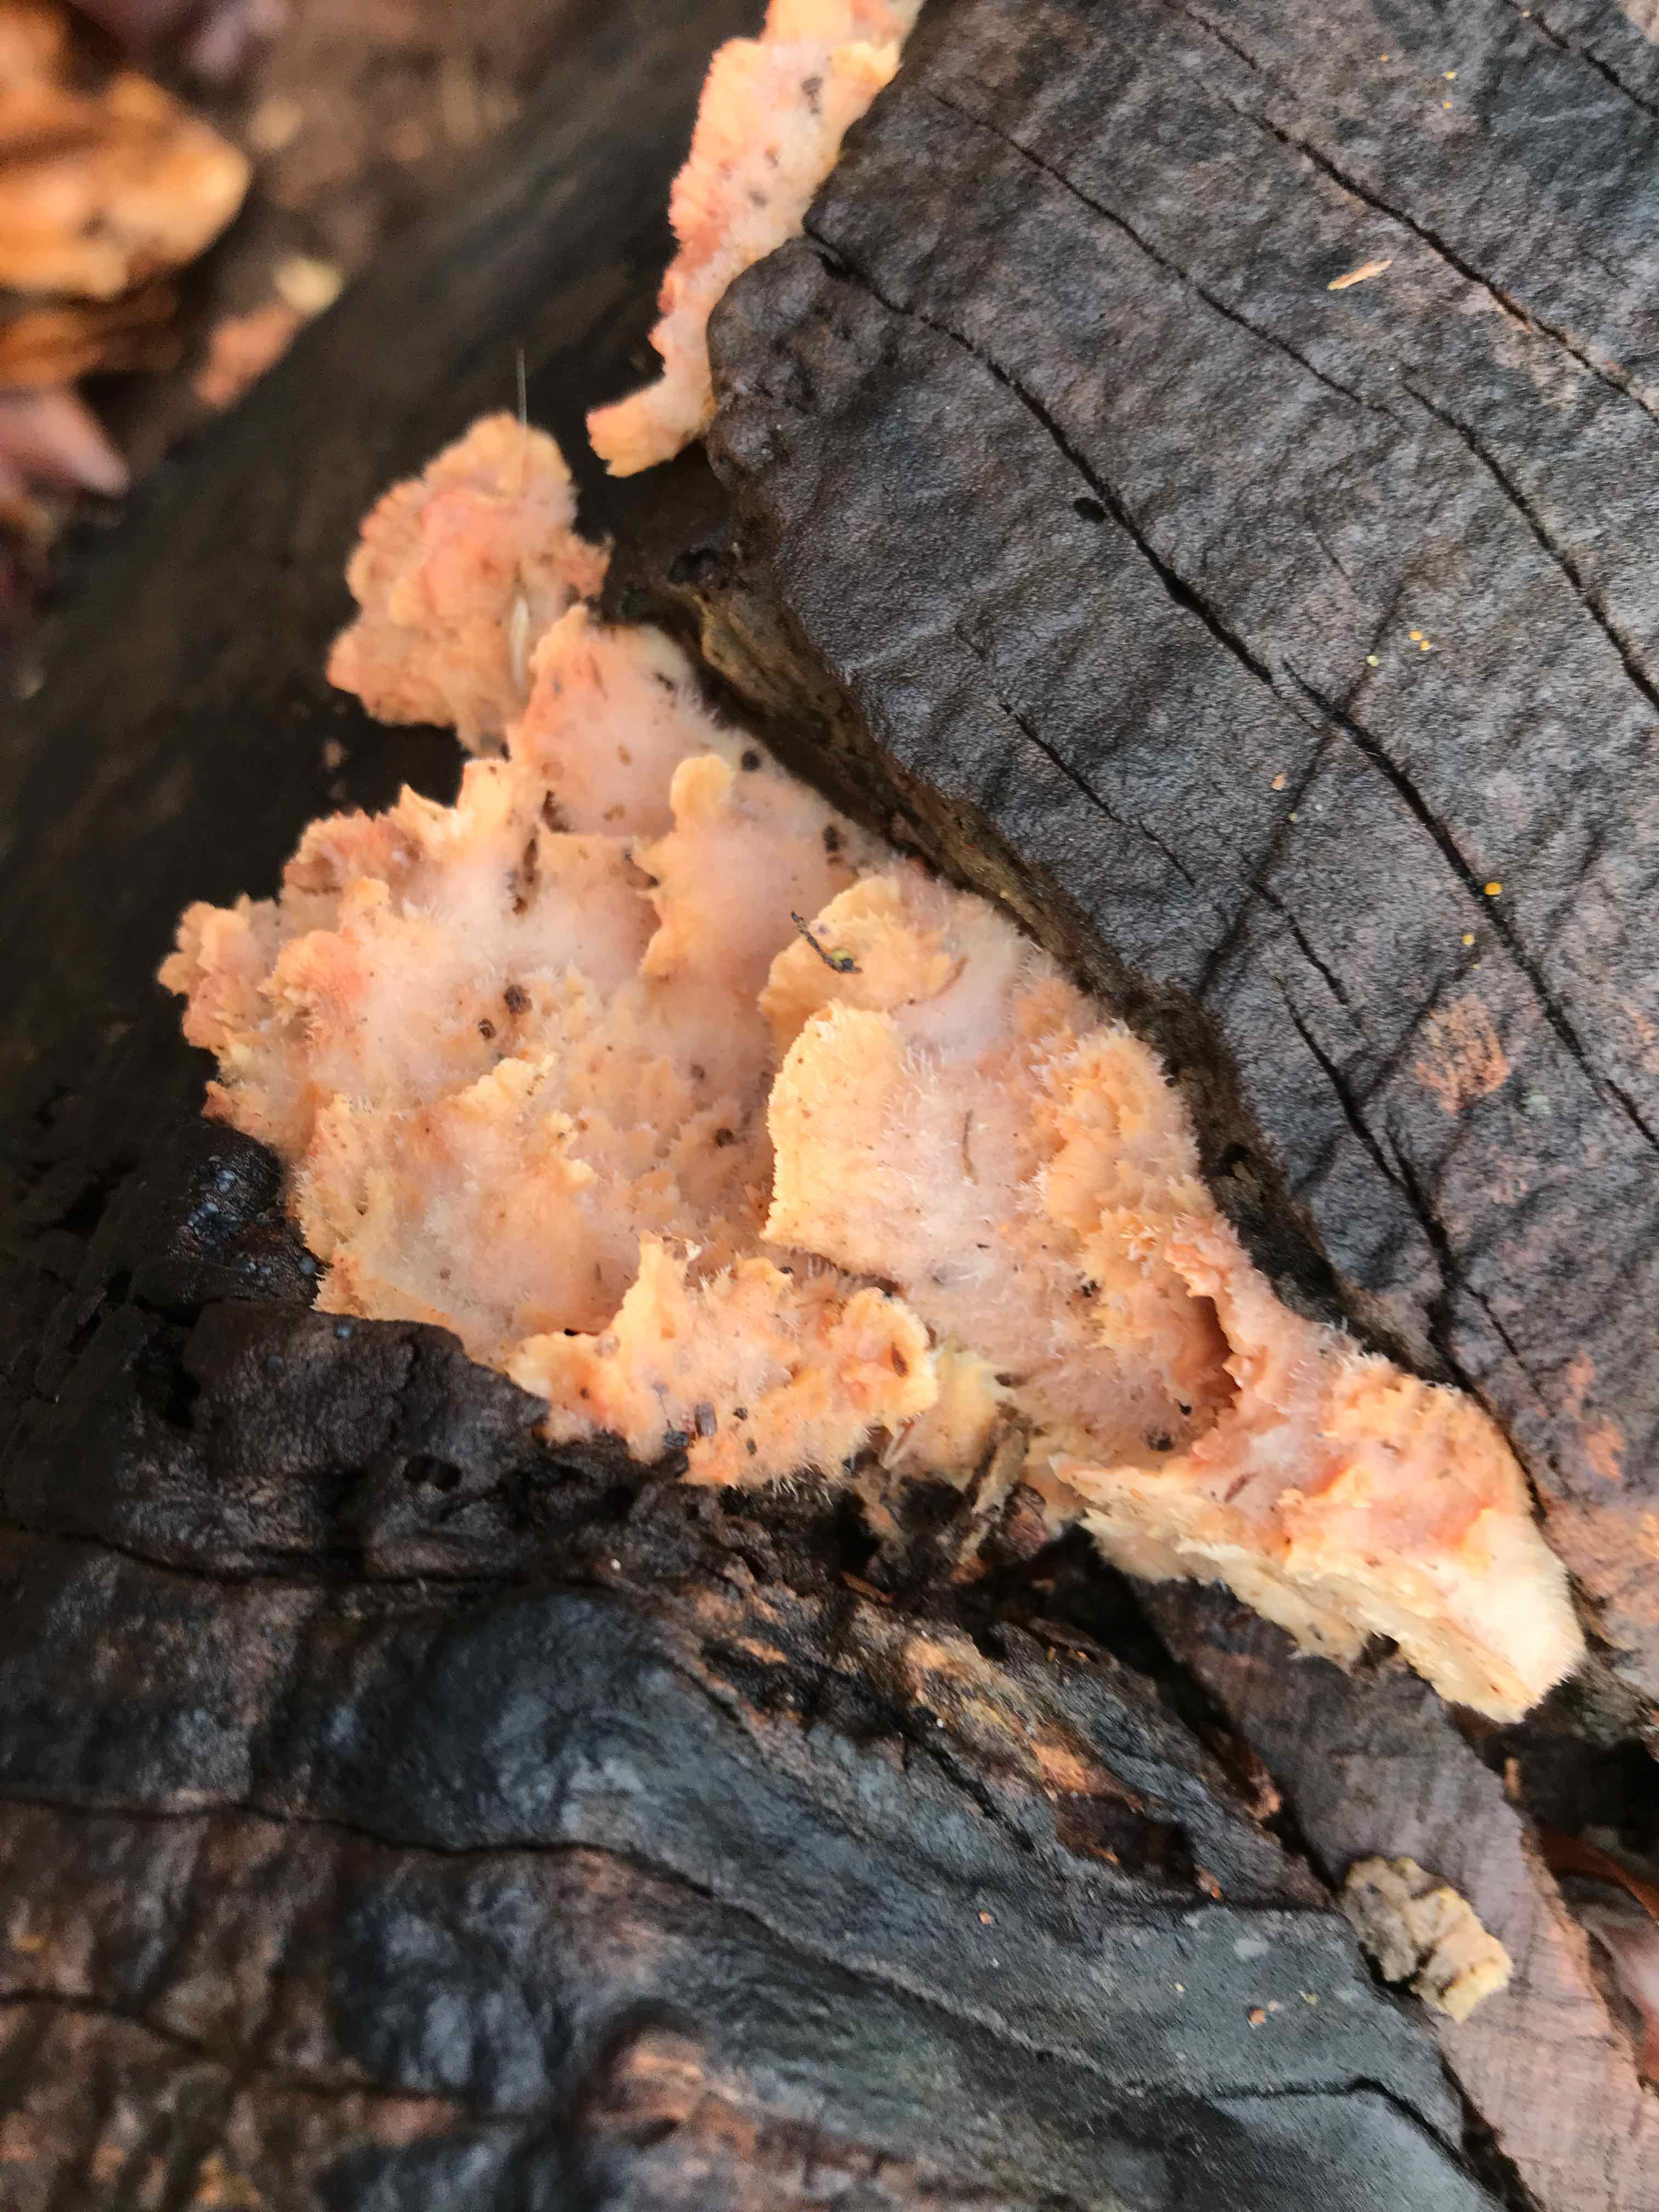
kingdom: Fungi
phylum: Basidiomycota
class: Agaricomycetes
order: Polyporales
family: Meruliaceae
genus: Phlebia
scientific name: Phlebia tremellosa
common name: bævrende åresvamp
